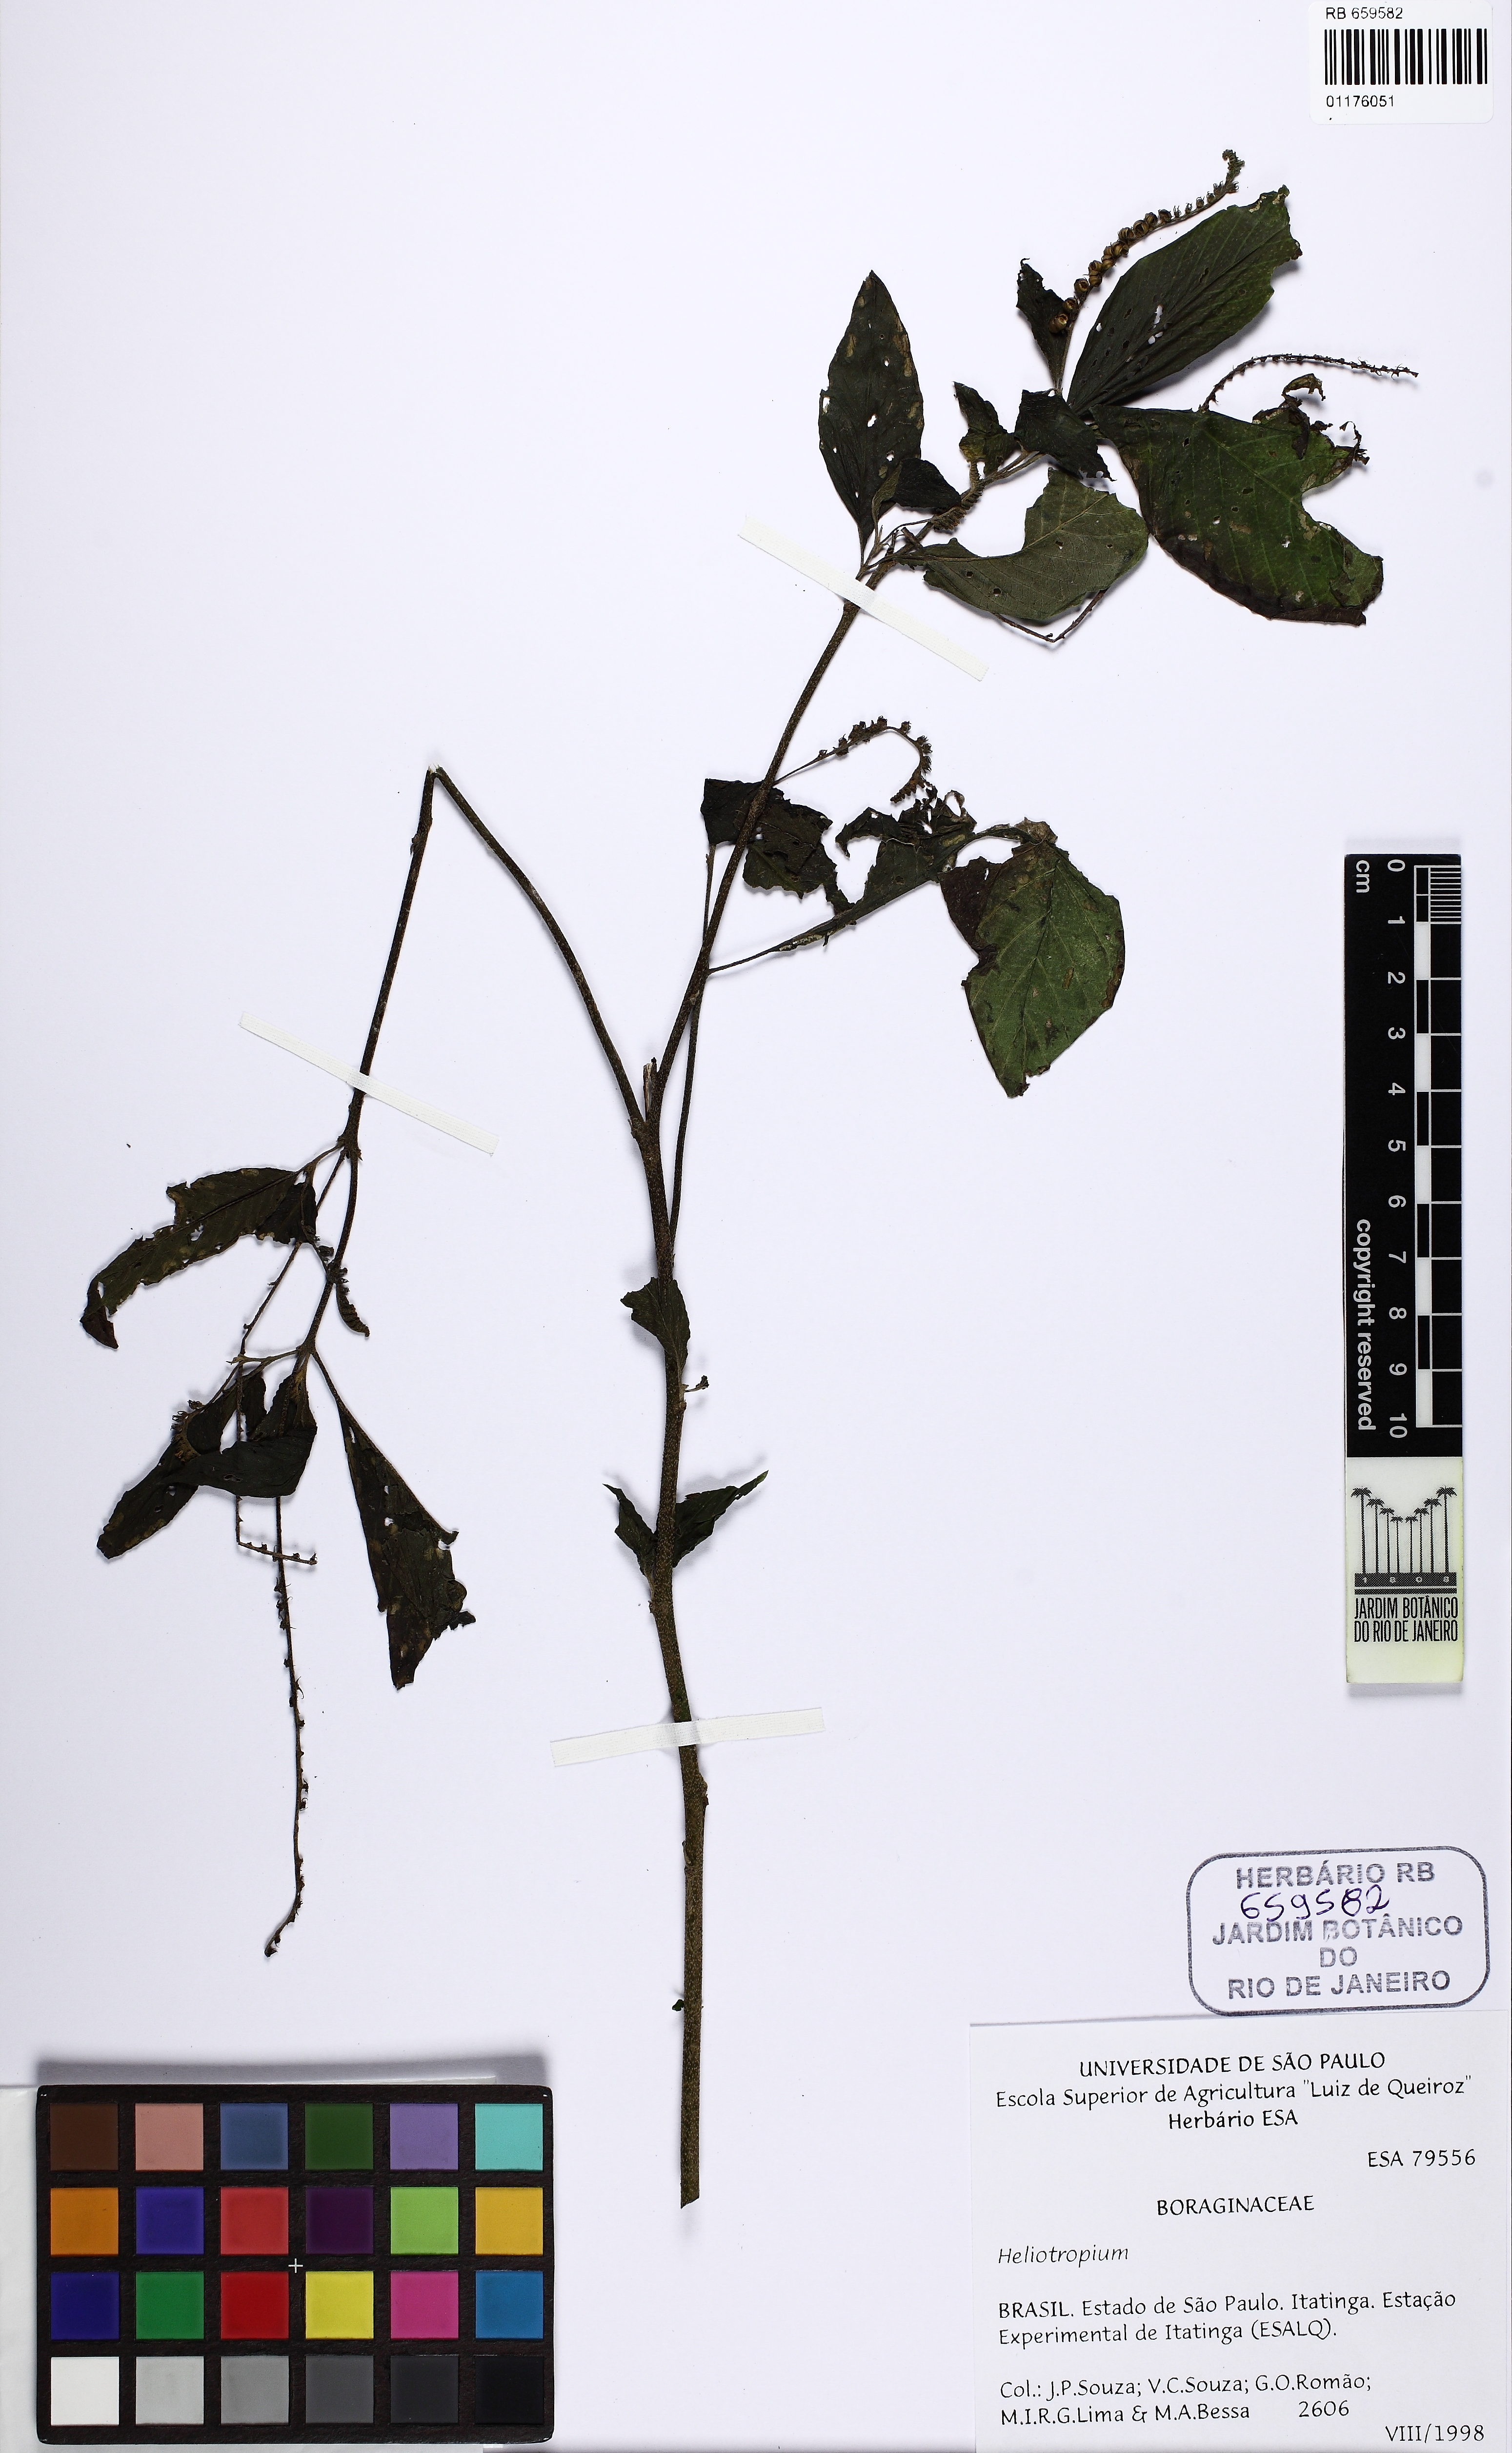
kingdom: Plantae
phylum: Tracheophyta
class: Magnoliopsida
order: Boraginales
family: Heliotropiaceae
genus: Heliotropium
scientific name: Heliotropium transalpinum
